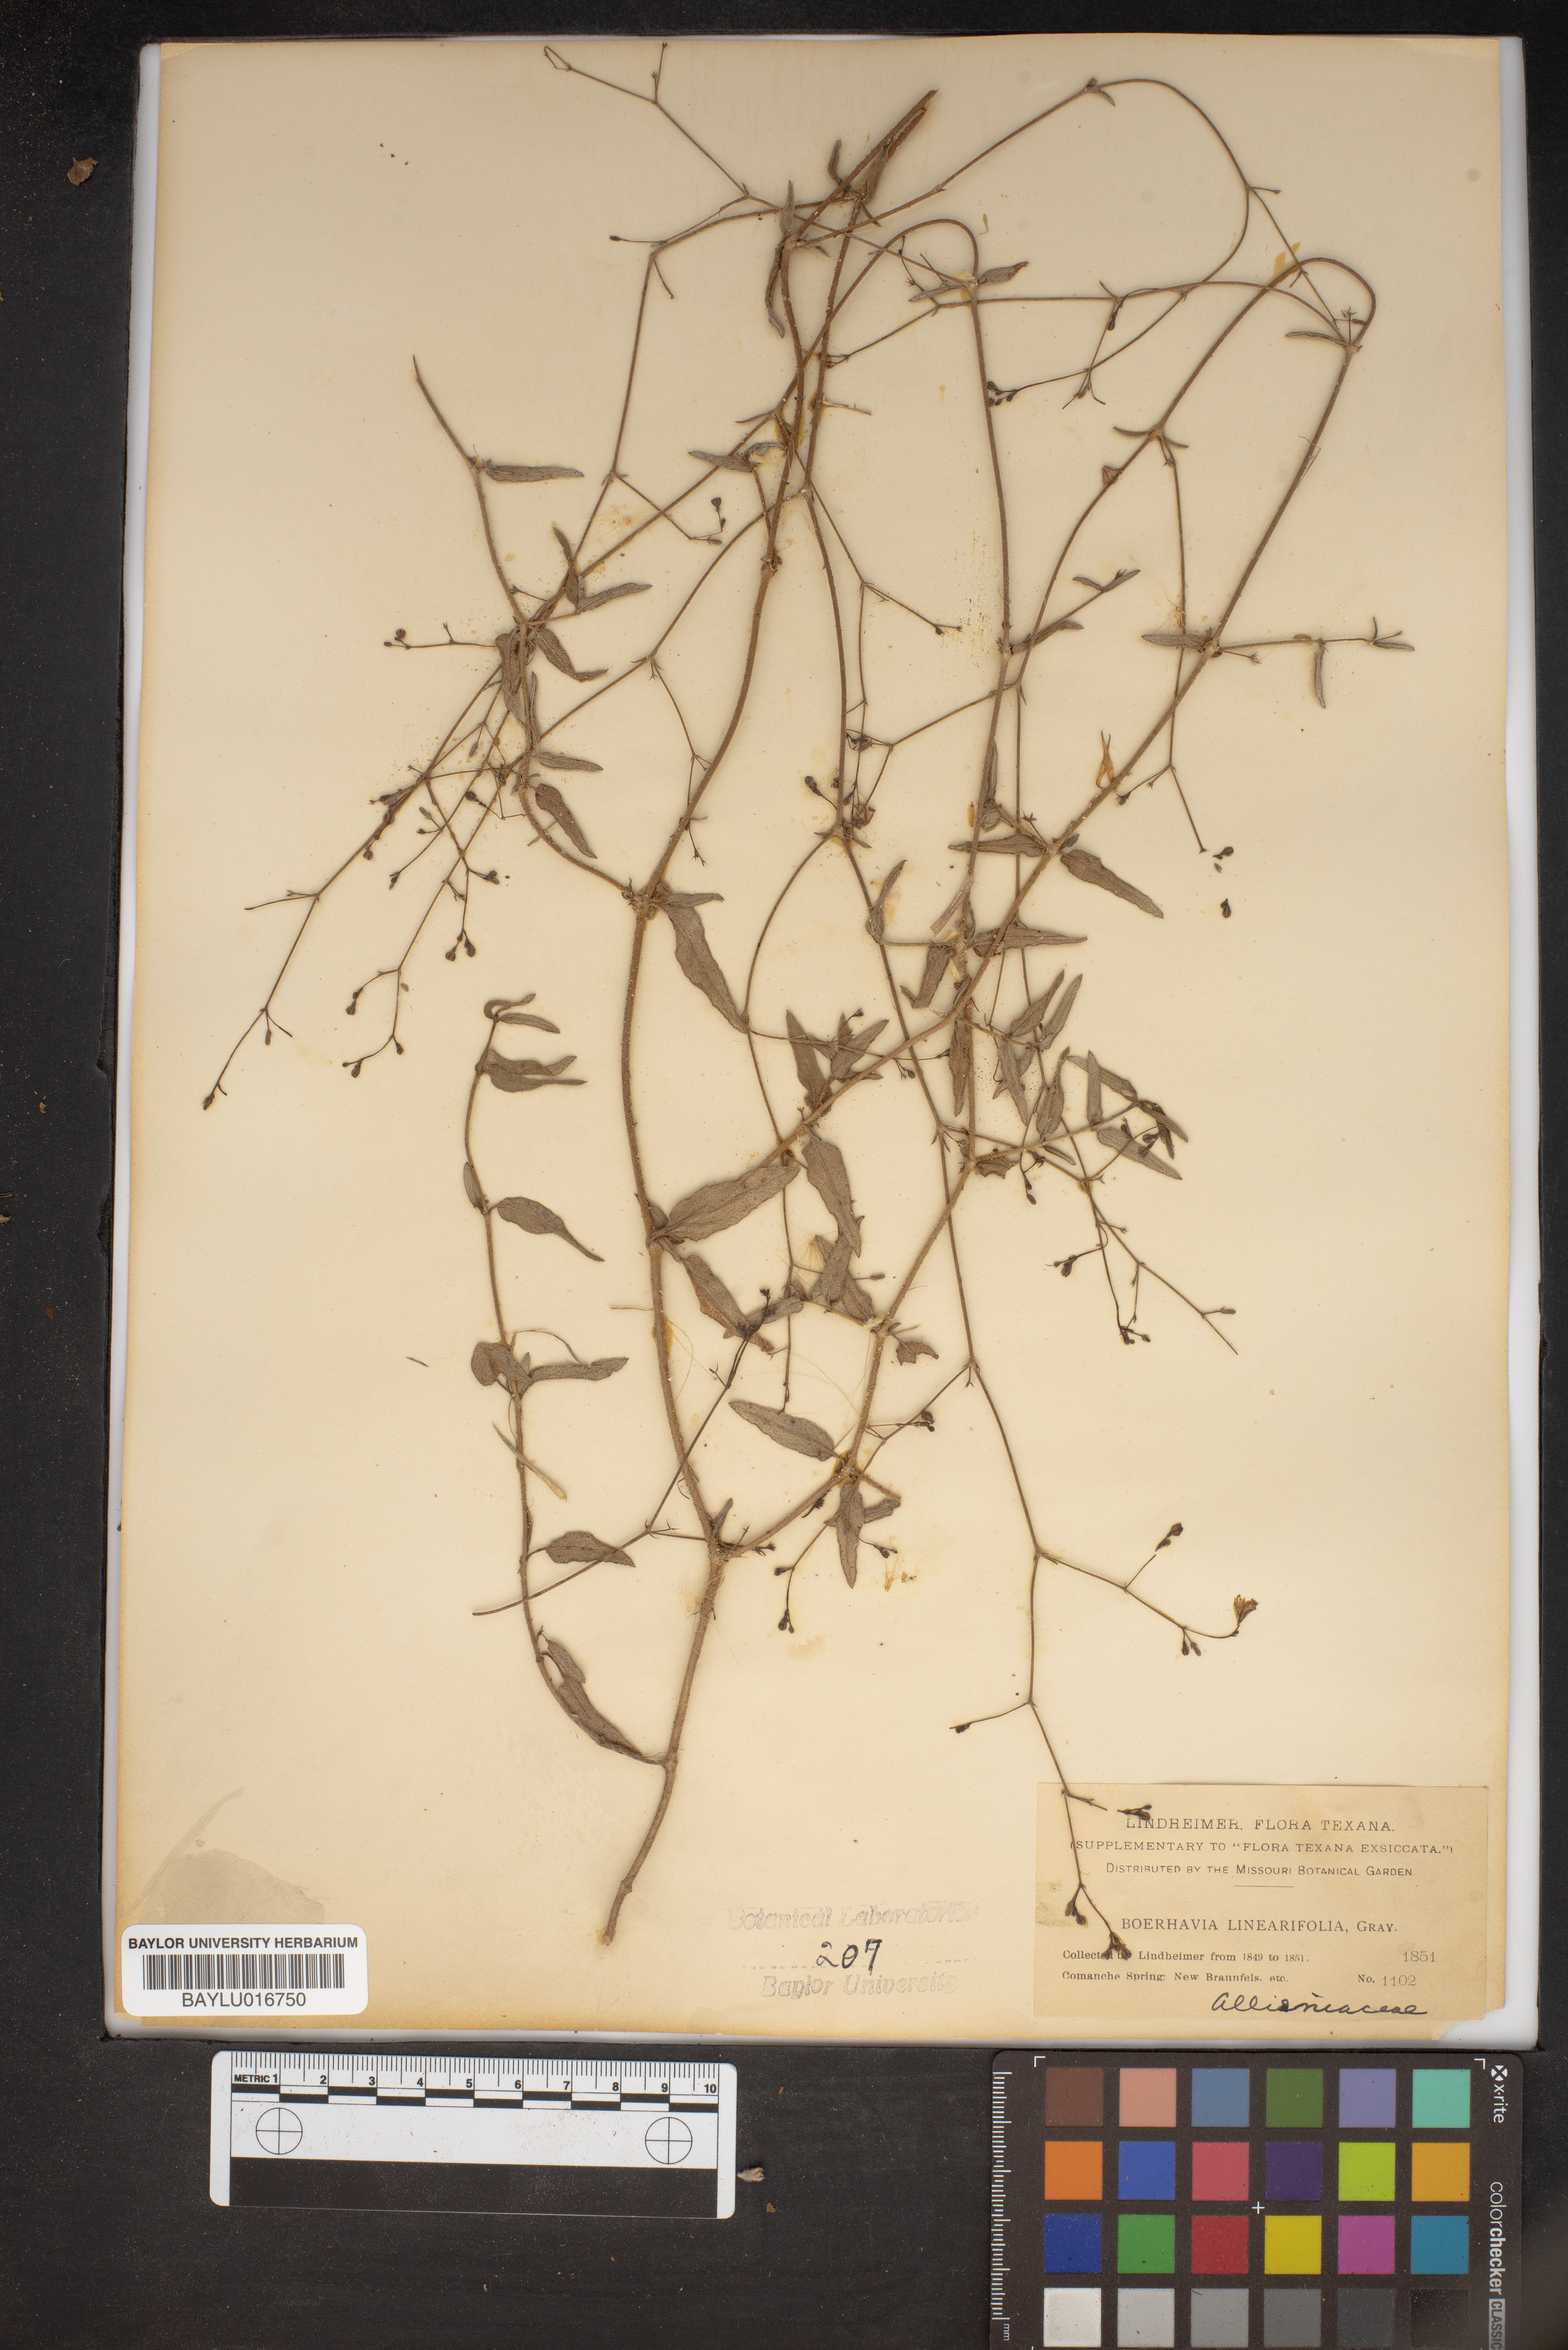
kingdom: Plantae
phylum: Tracheophyta
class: Magnoliopsida
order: Caryophyllales
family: Nyctaginaceae
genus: Boerhavia
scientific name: Boerhavia linearifolia
